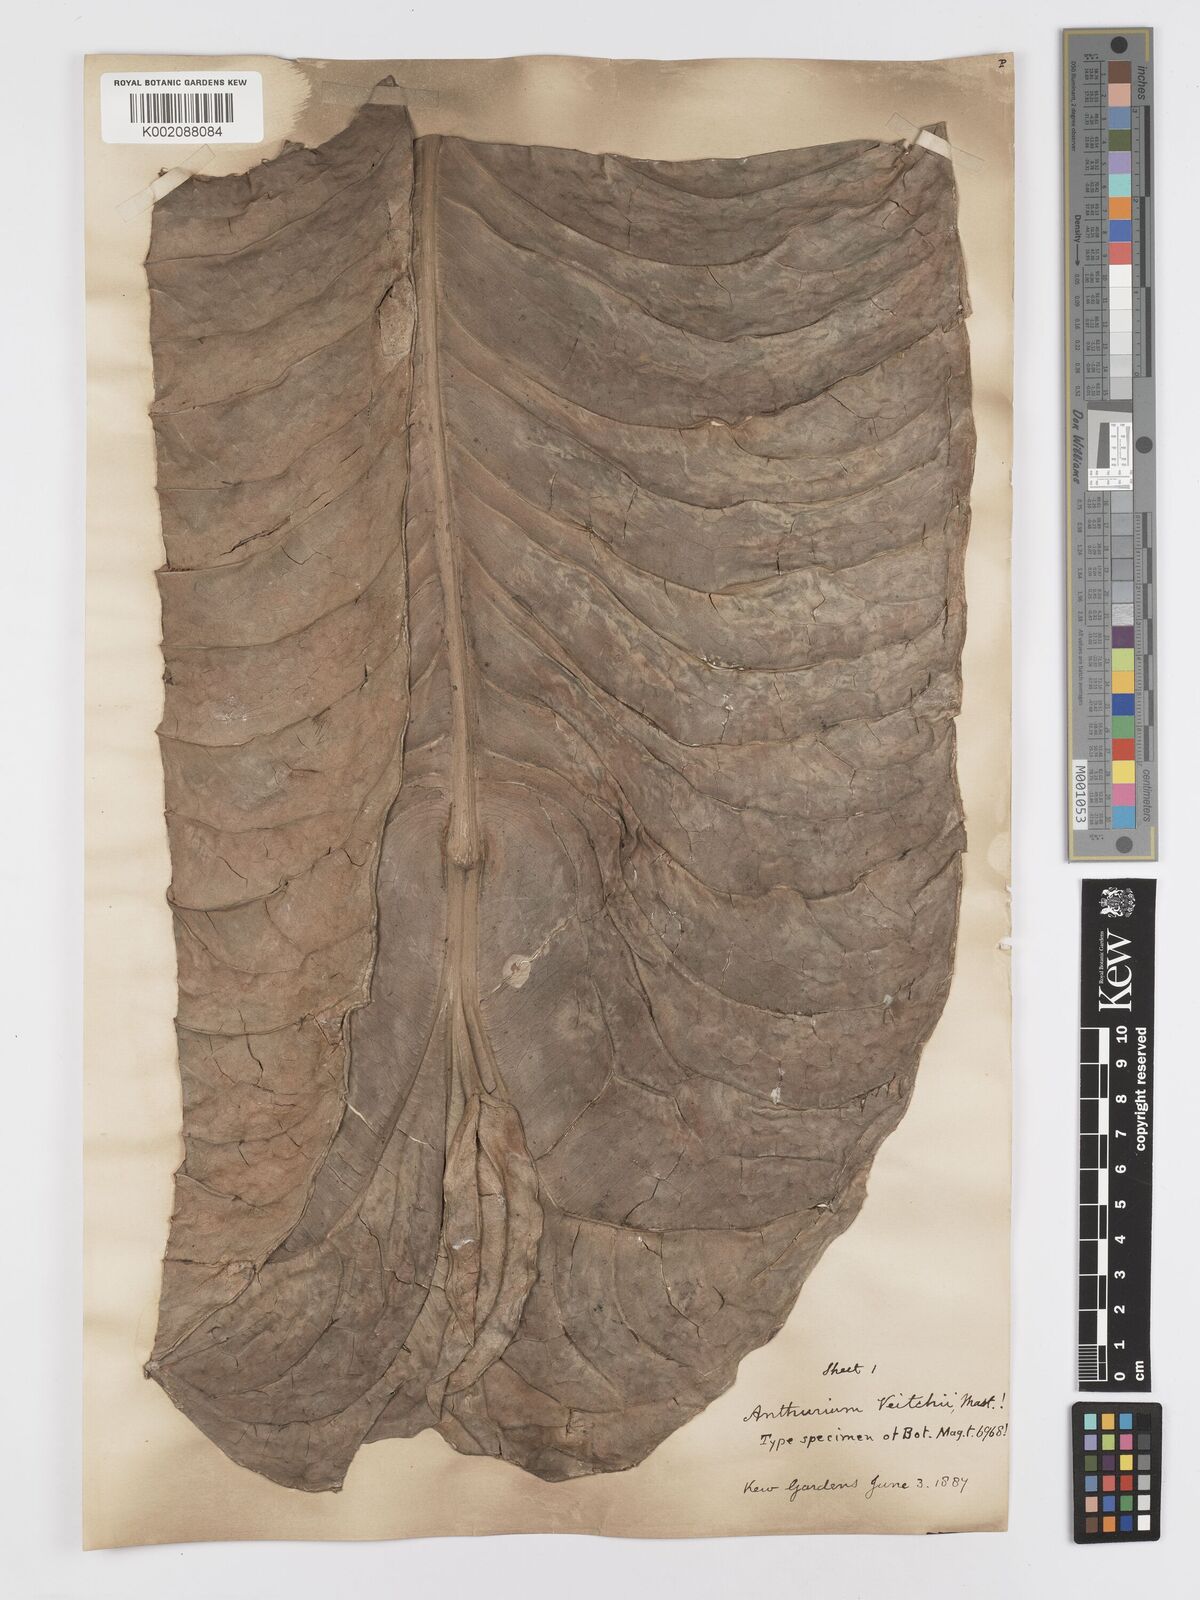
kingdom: Plantae
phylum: Tracheophyta
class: Liliopsida
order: Alismatales
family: Araceae
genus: Anthurium
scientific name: Anthurium veitchii
